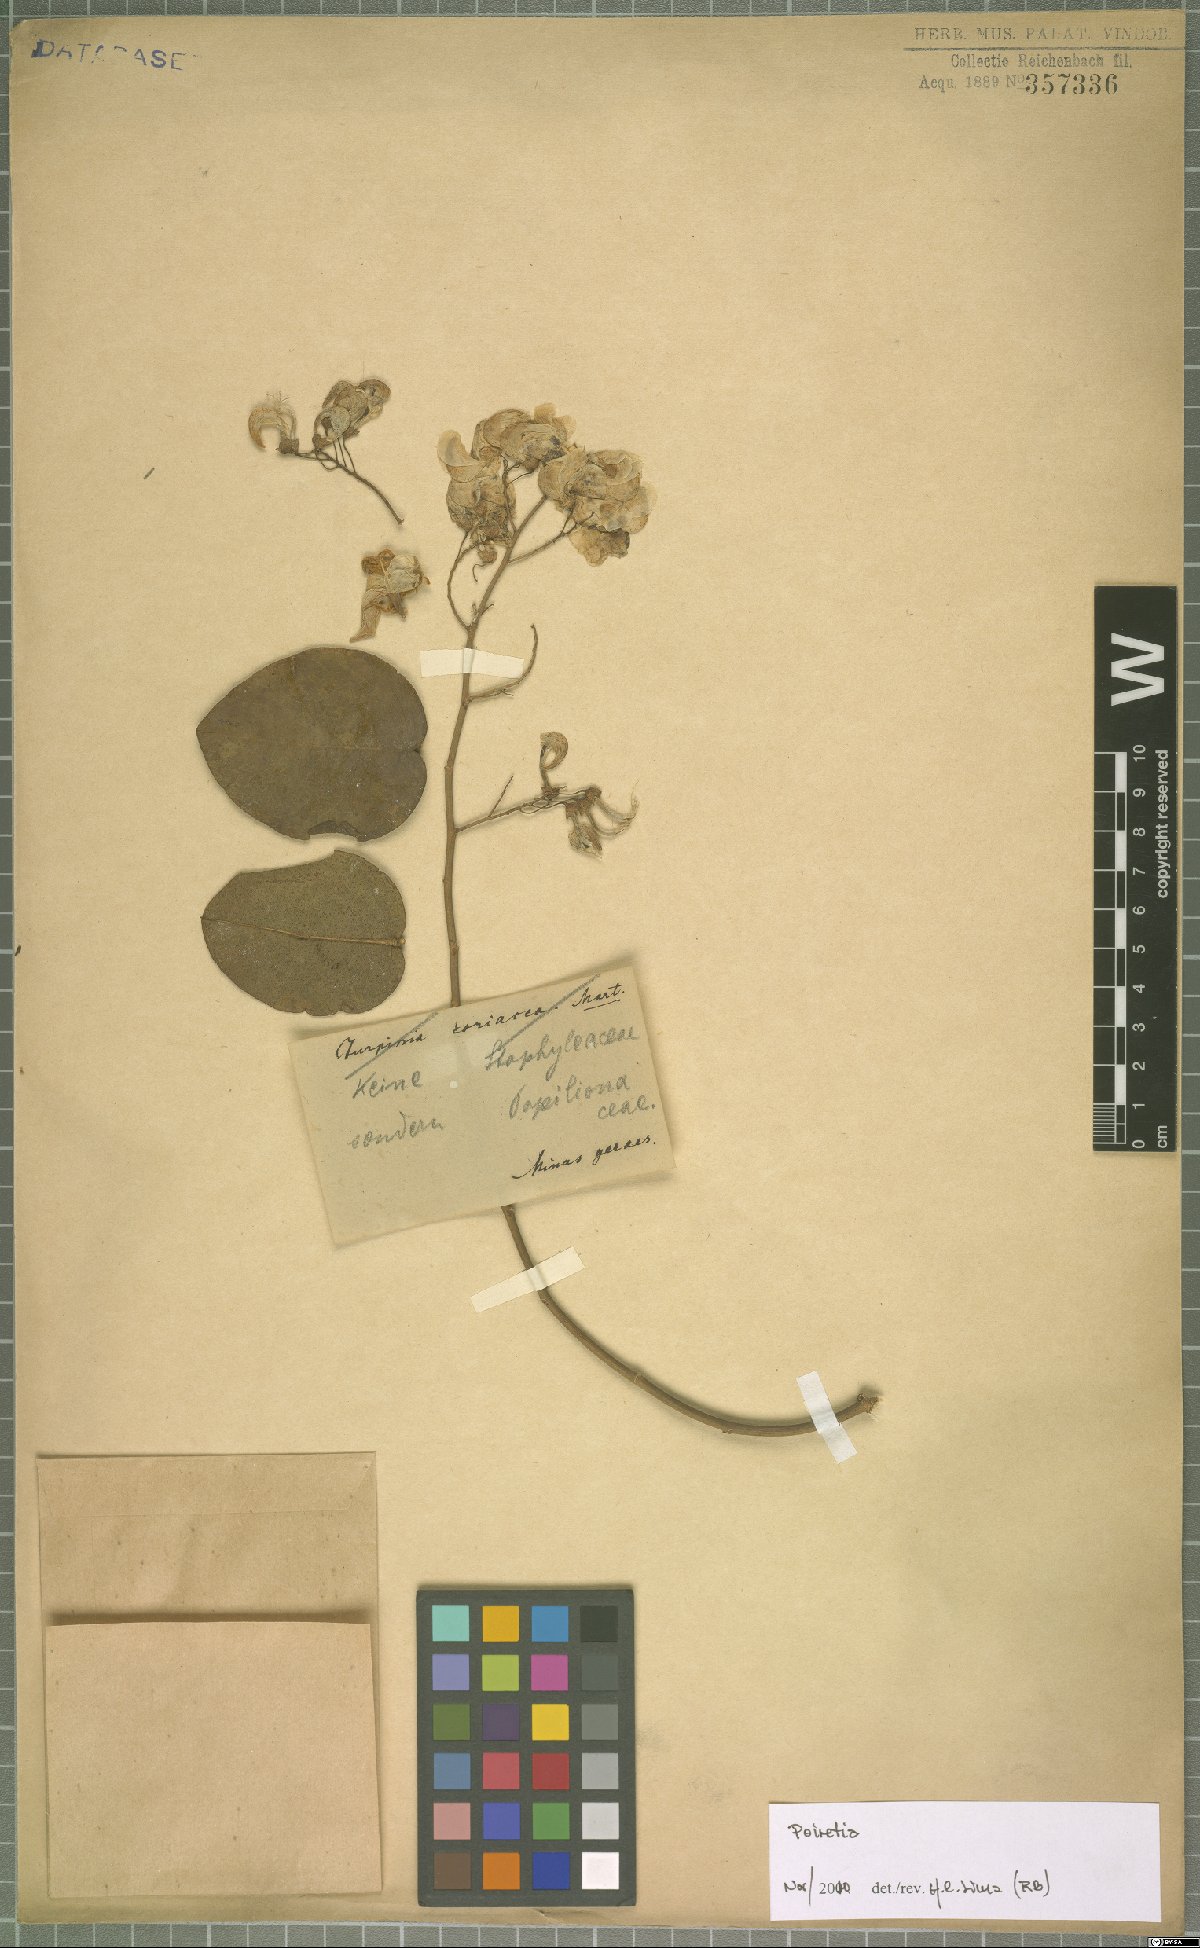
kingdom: Plantae
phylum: Tracheophyta
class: Magnoliopsida
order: Fabales
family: Fabaceae
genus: Poiretia
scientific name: Poiretia
